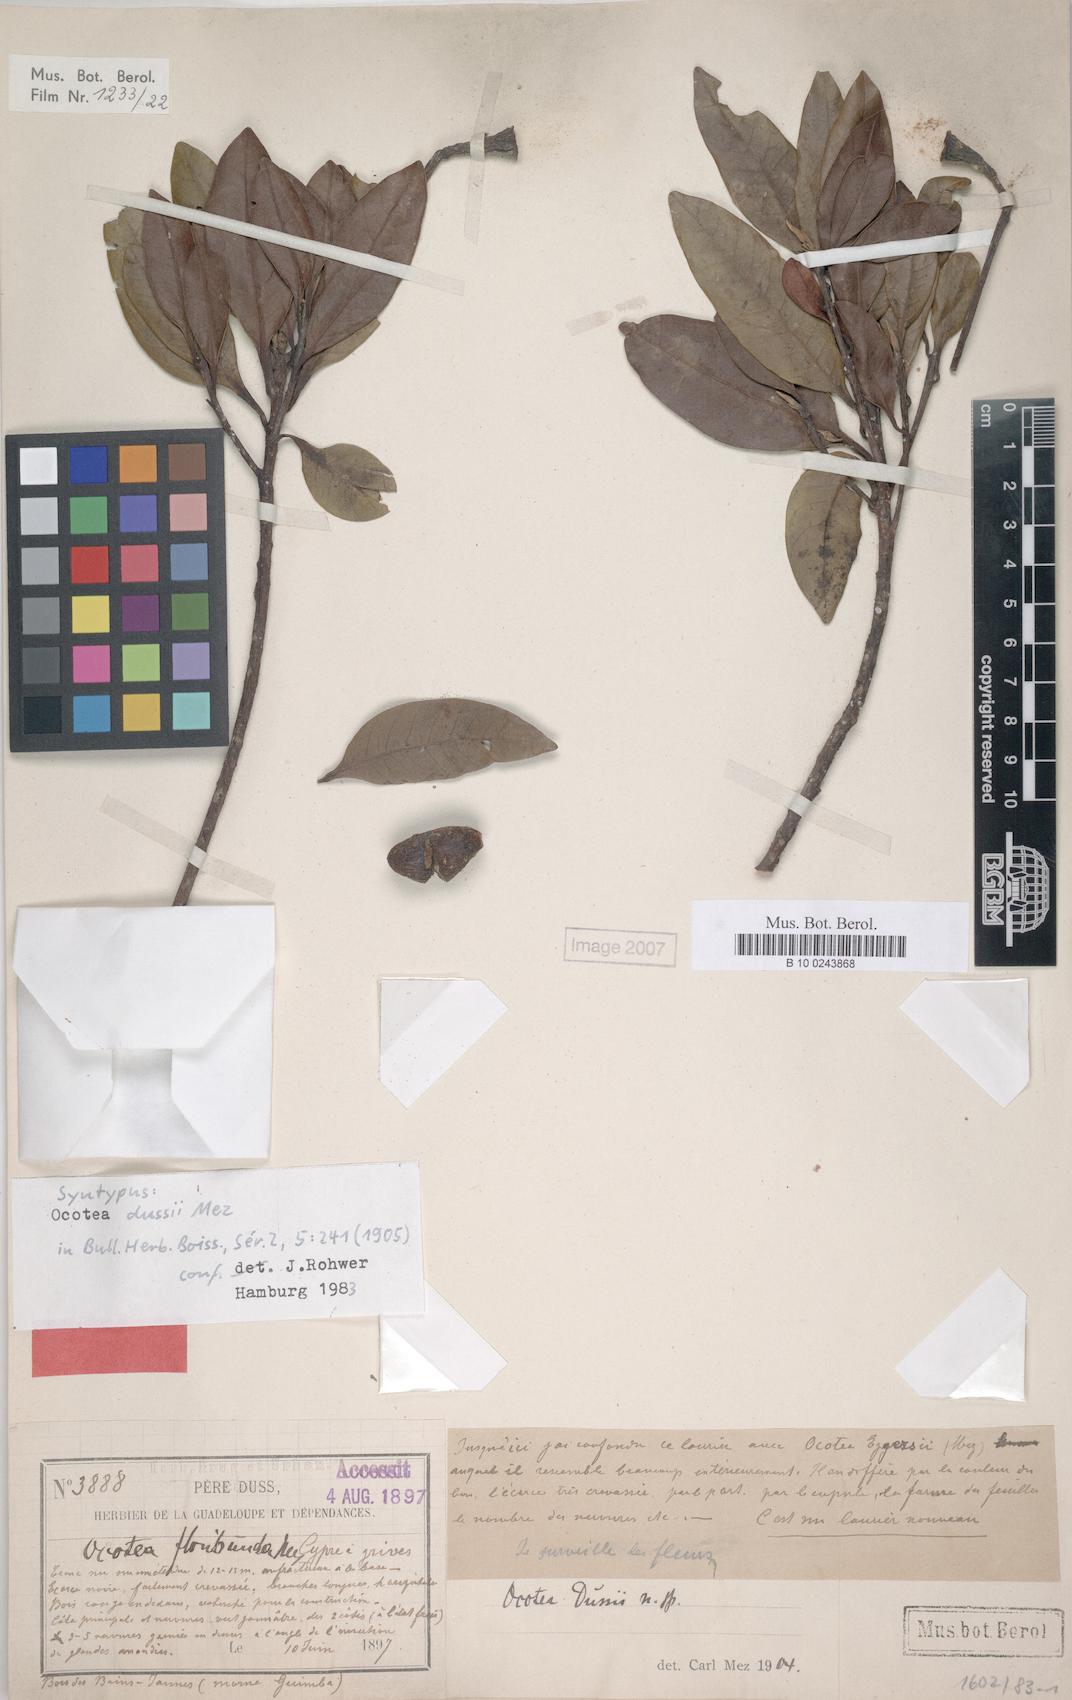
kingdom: Plantae
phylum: Tracheophyta
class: Magnoliopsida
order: Laurales
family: Lauraceae
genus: Ocotea
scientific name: Ocotea dussii
